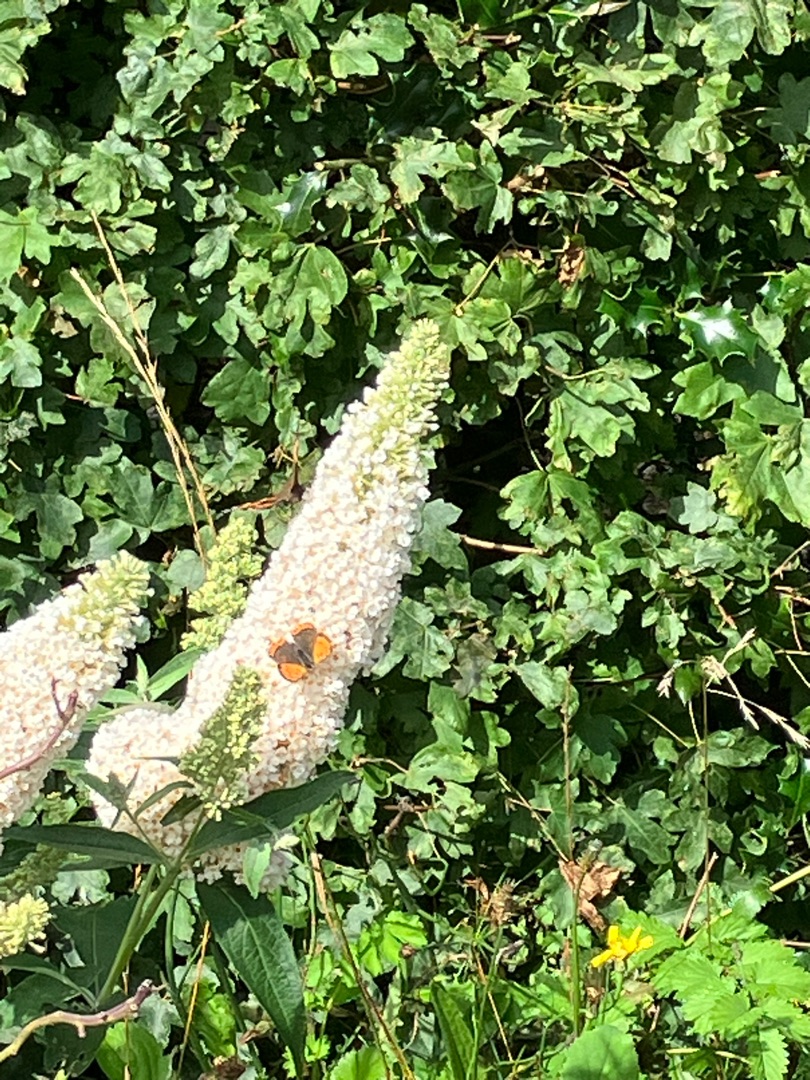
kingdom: Animalia
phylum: Arthropoda
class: Insecta
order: Lepidoptera
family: Lycaenidae
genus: Lycaena
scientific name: Lycaena phlaeas
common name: Lille ildfugl
